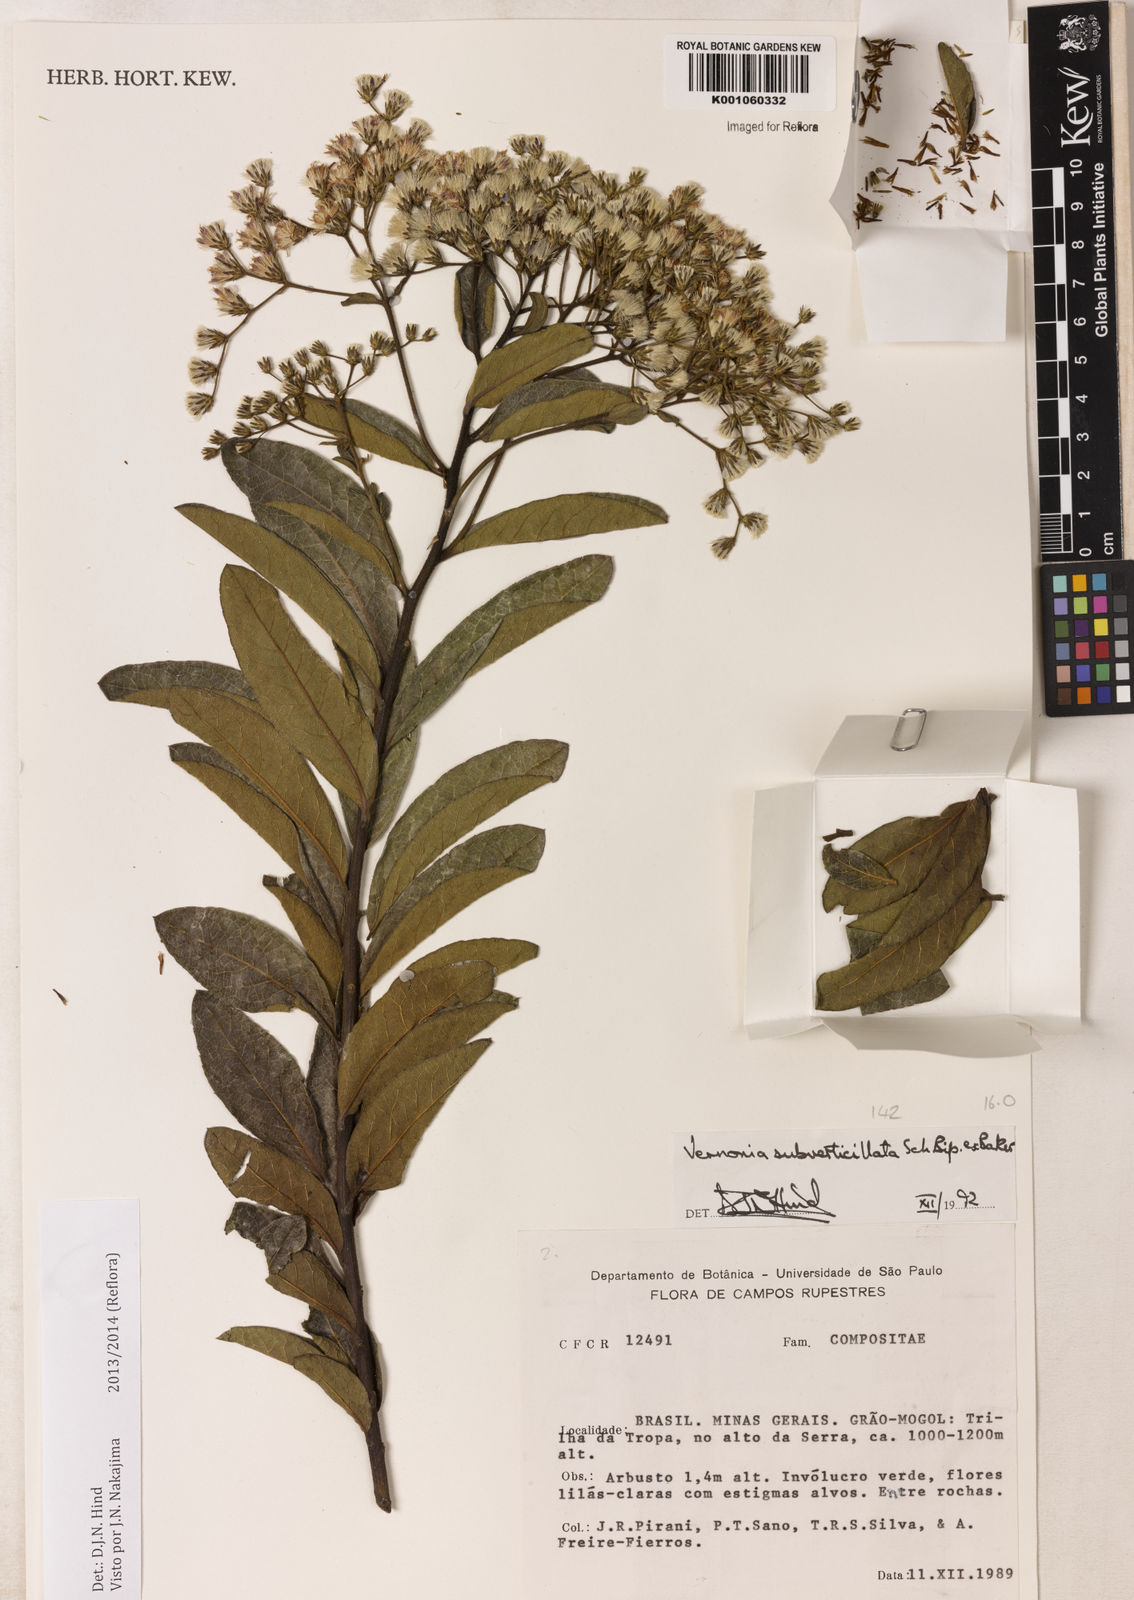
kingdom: Plantae
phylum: Tracheophyta
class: Magnoliopsida
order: Asterales
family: Asteraceae
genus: Vernonanthura
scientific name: Vernonanthura subverticillata
